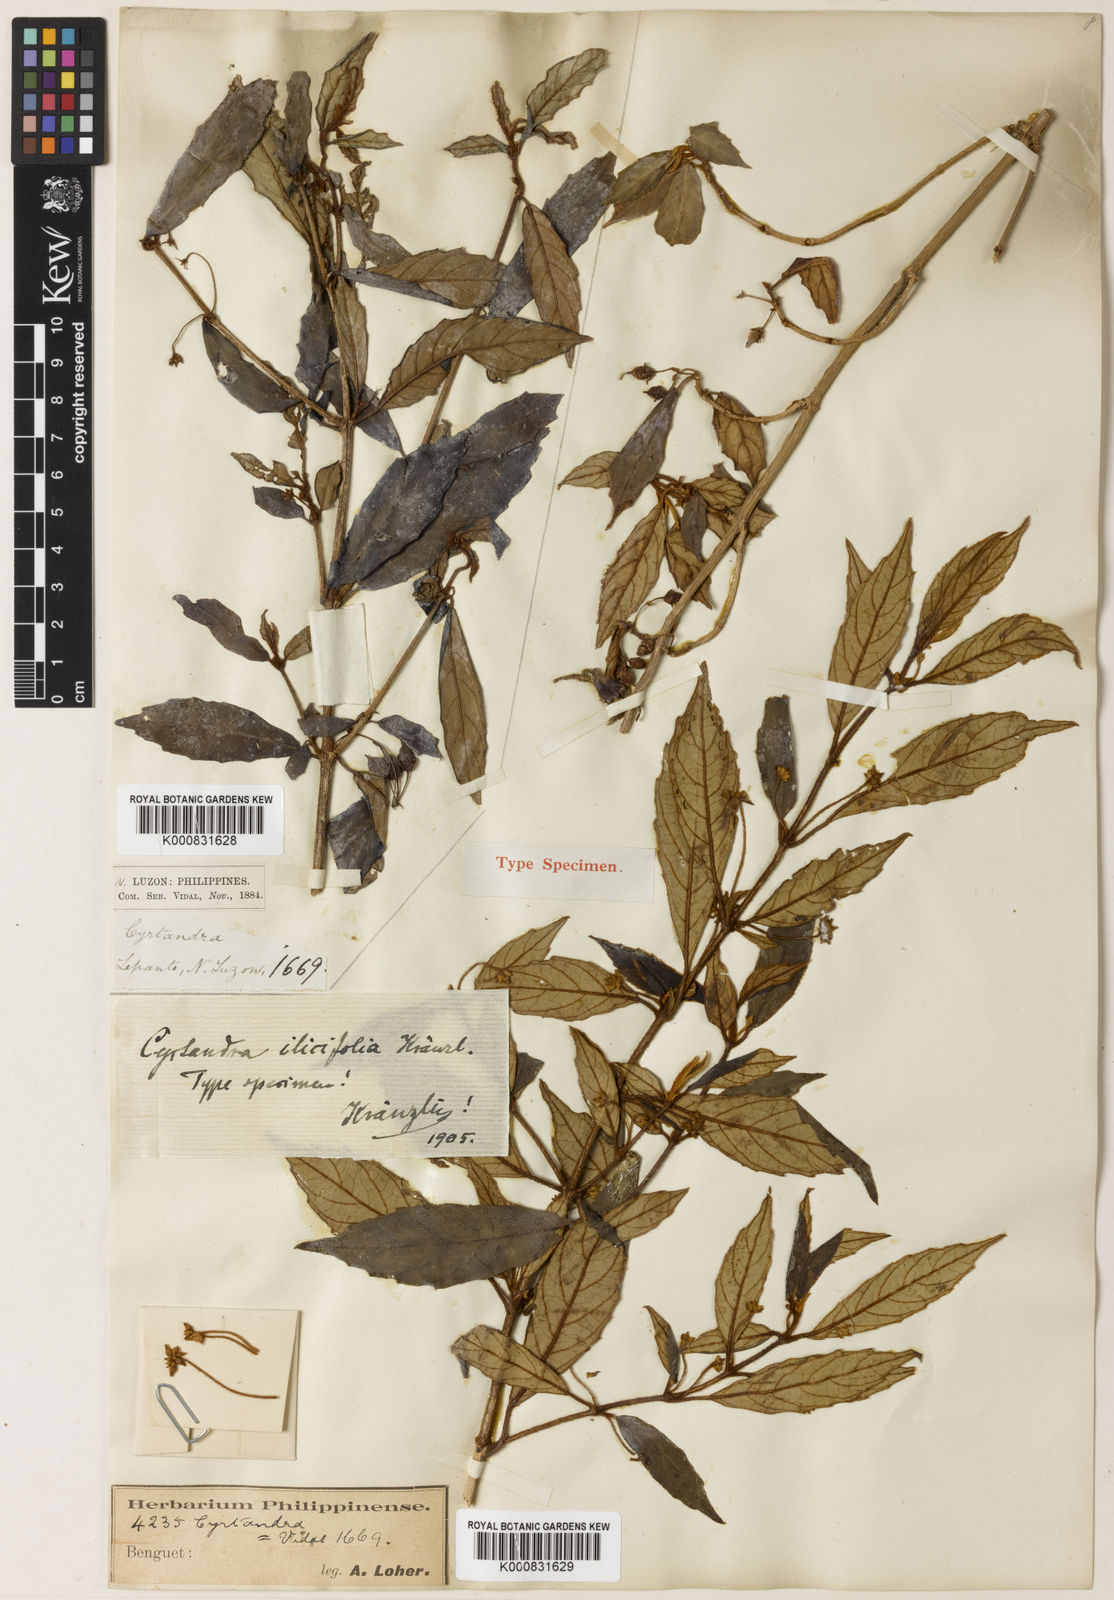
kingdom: Plantae
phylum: Tracheophyta
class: Magnoliopsida
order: Lamiales
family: Gesneriaceae
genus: Cyrtandra
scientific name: Cyrtandra ilicifolia
